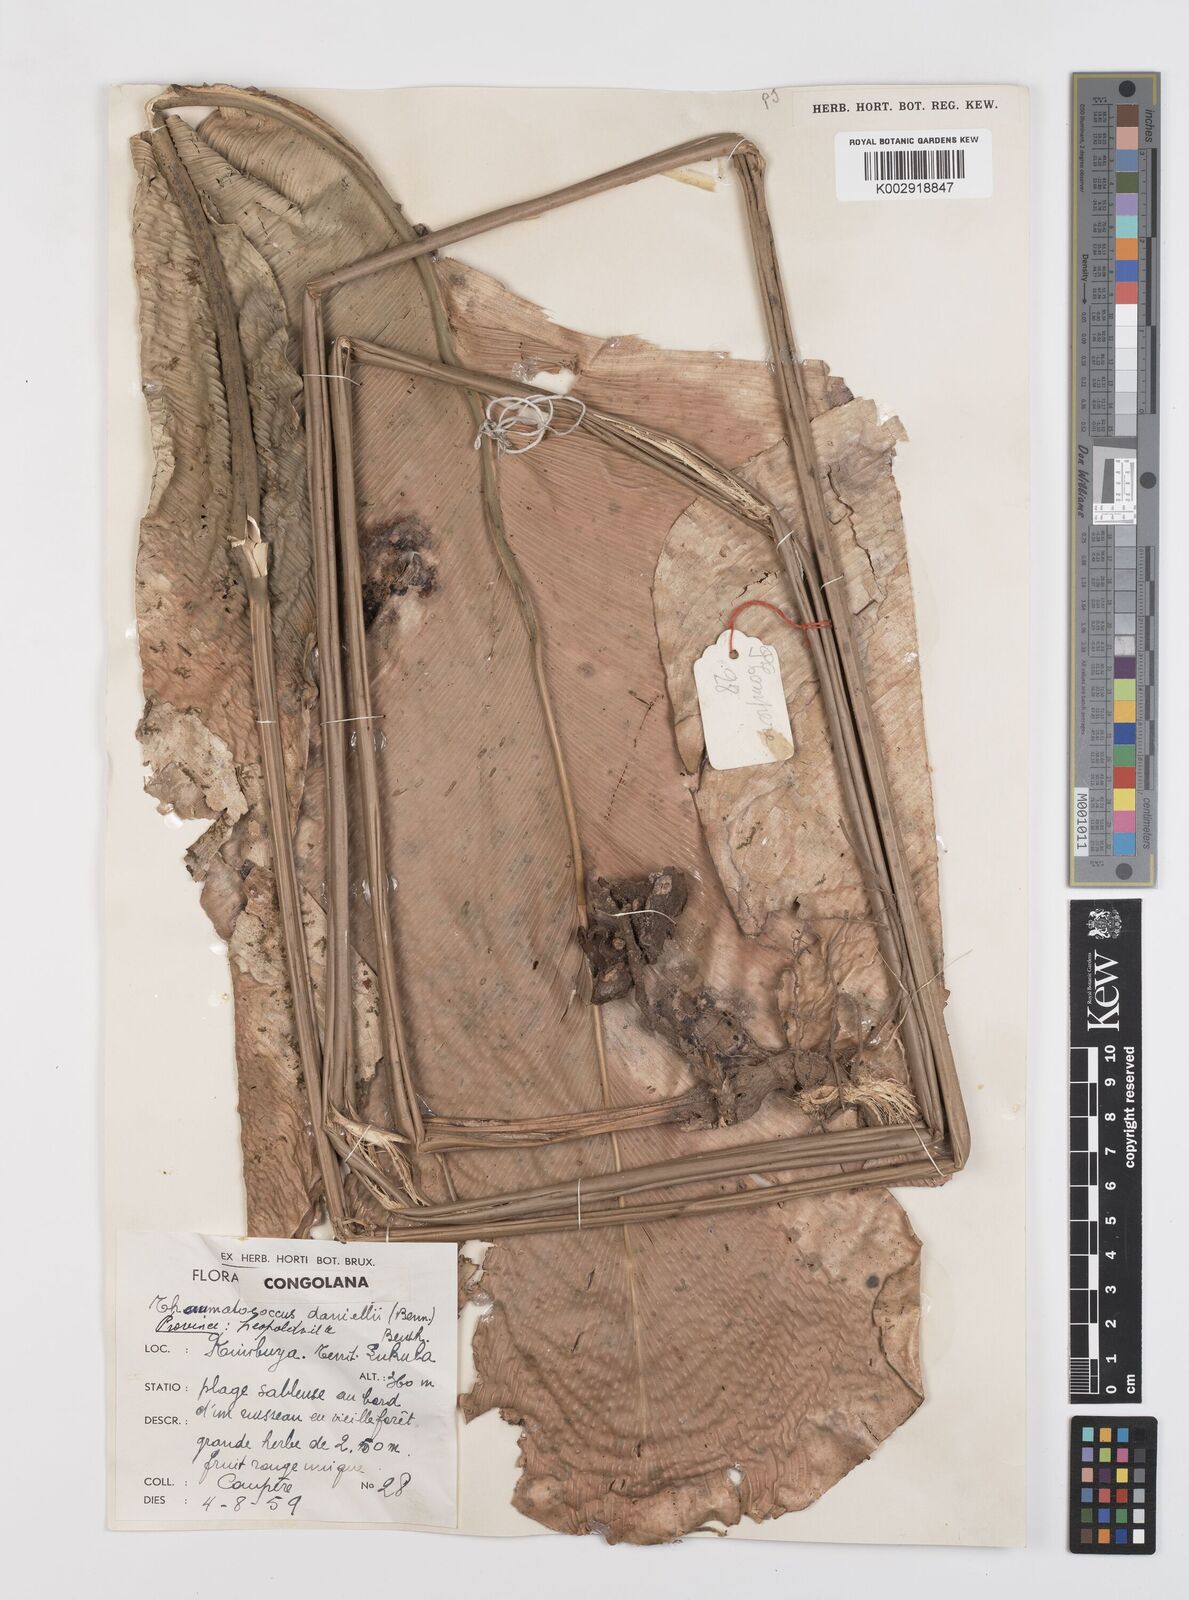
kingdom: Plantae
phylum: Tracheophyta
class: Liliopsida
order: Zingiberales
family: Marantaceae
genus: Thaumatococcus
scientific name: Thaumatococcus daniellii
